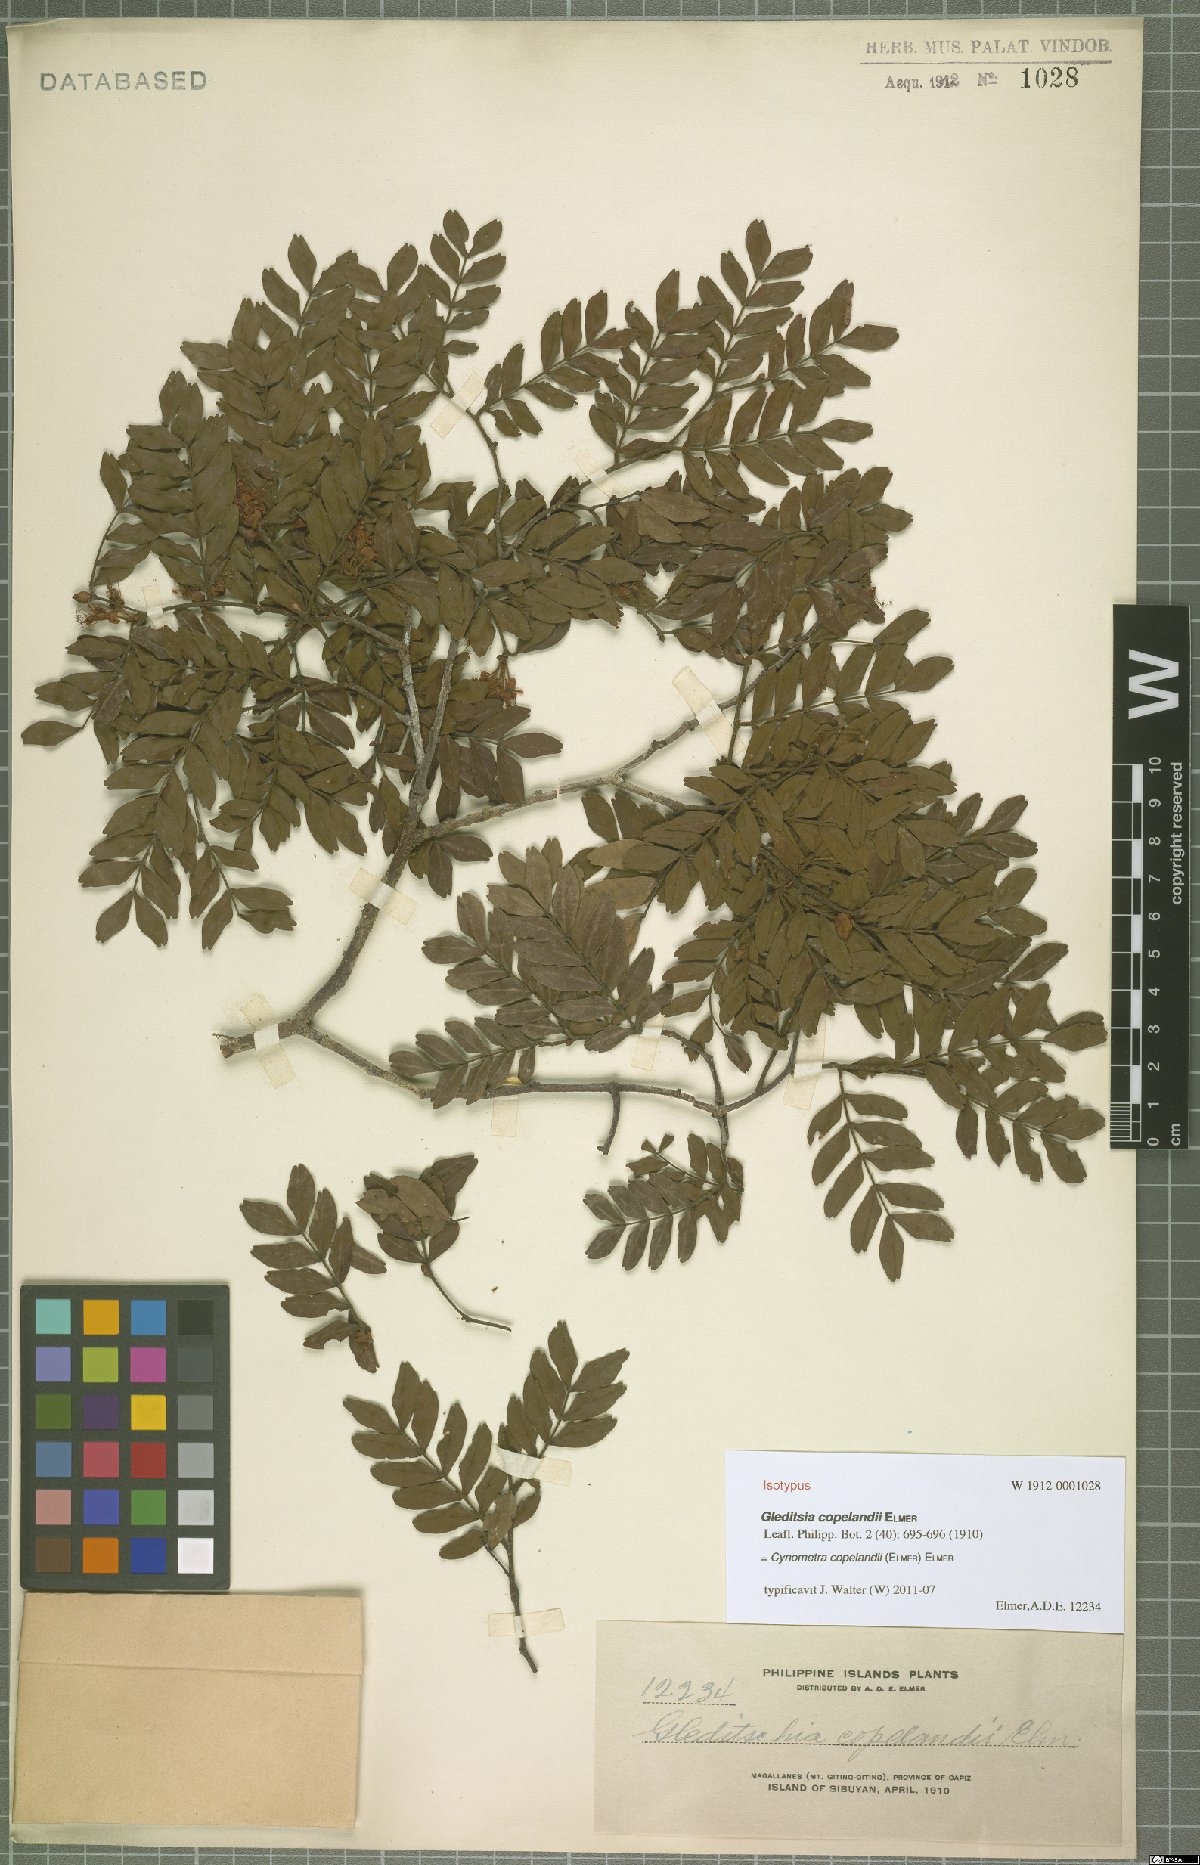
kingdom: Plantae
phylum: Tracheophyta
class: Magnoliopsida
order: Fabales
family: Fabaceae
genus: Cynometra
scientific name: Cynometra copelandii
